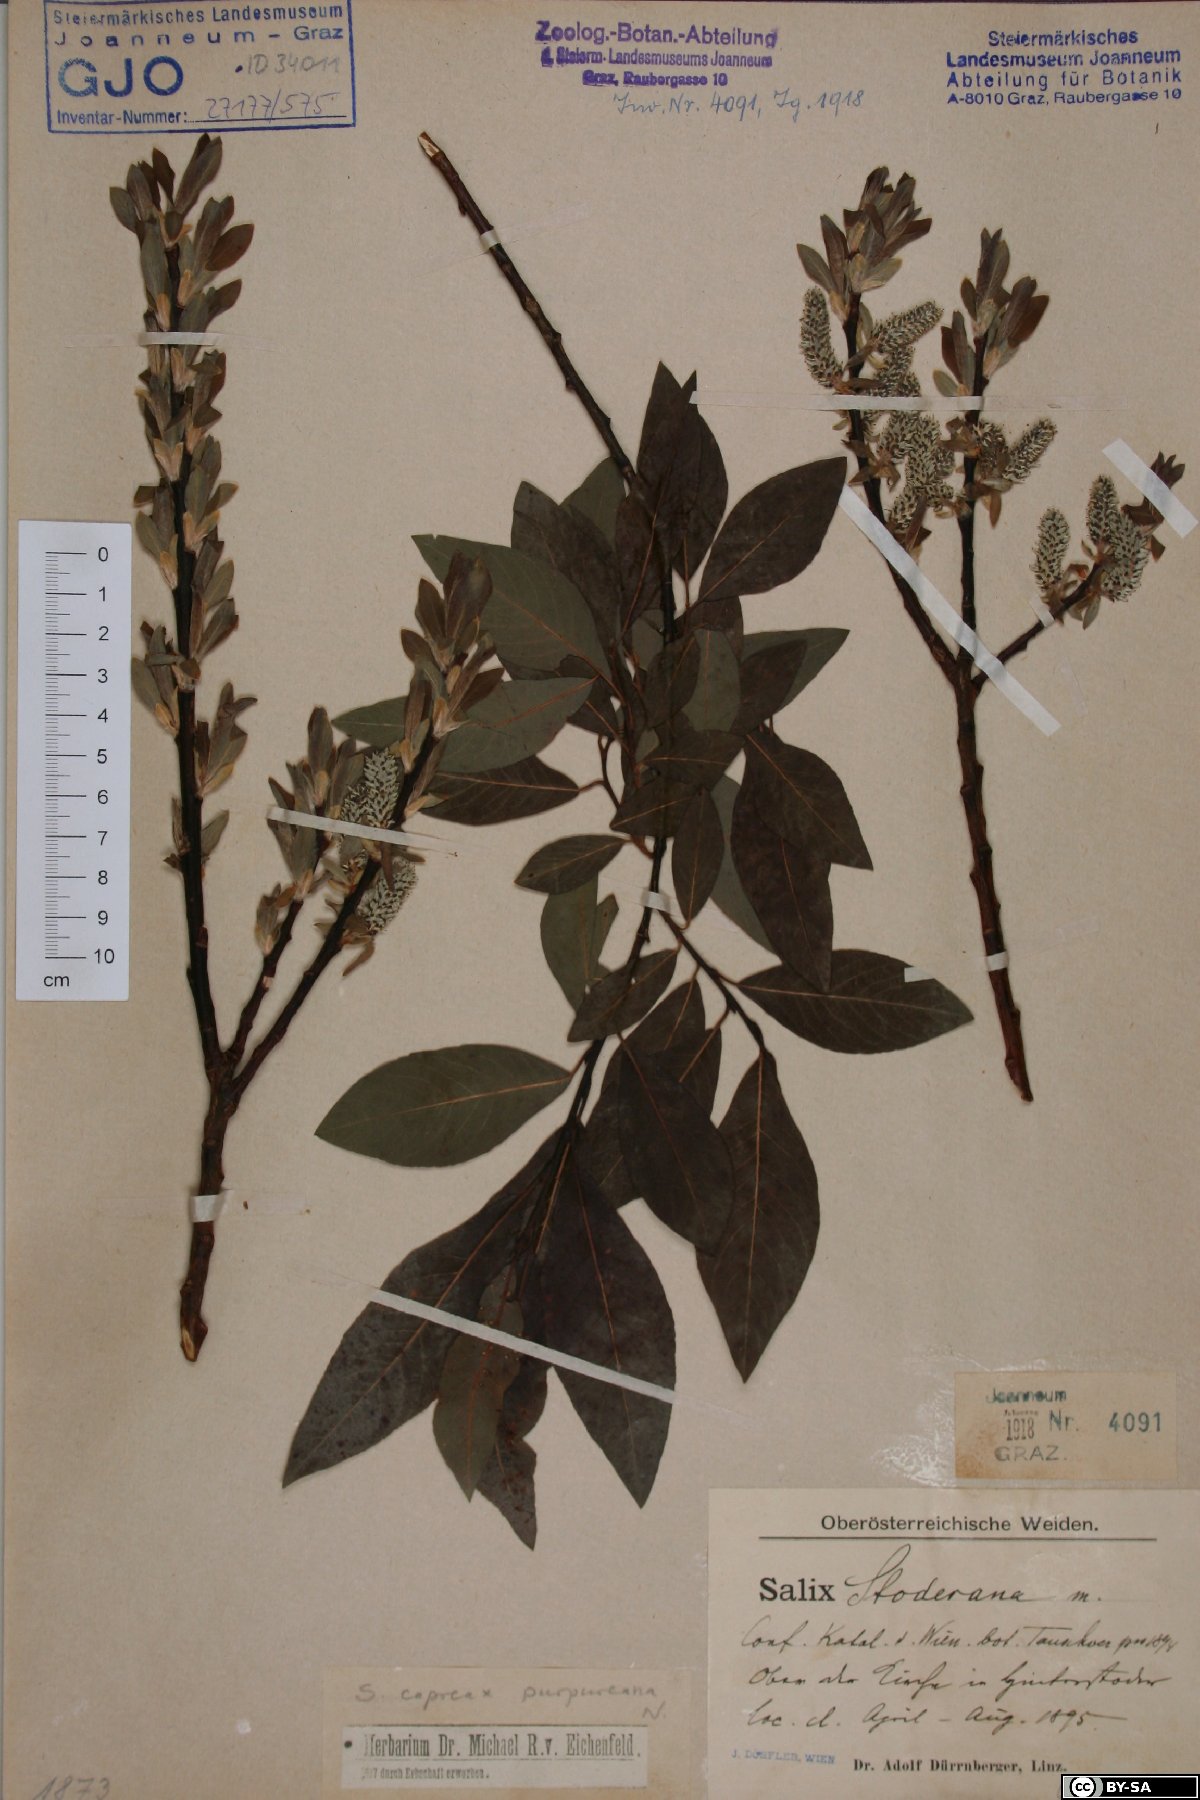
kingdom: Plantae
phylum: Tracheophyta
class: Magnoliopsida
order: Malpighiales
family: Salicaceae
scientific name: Salicaceae
